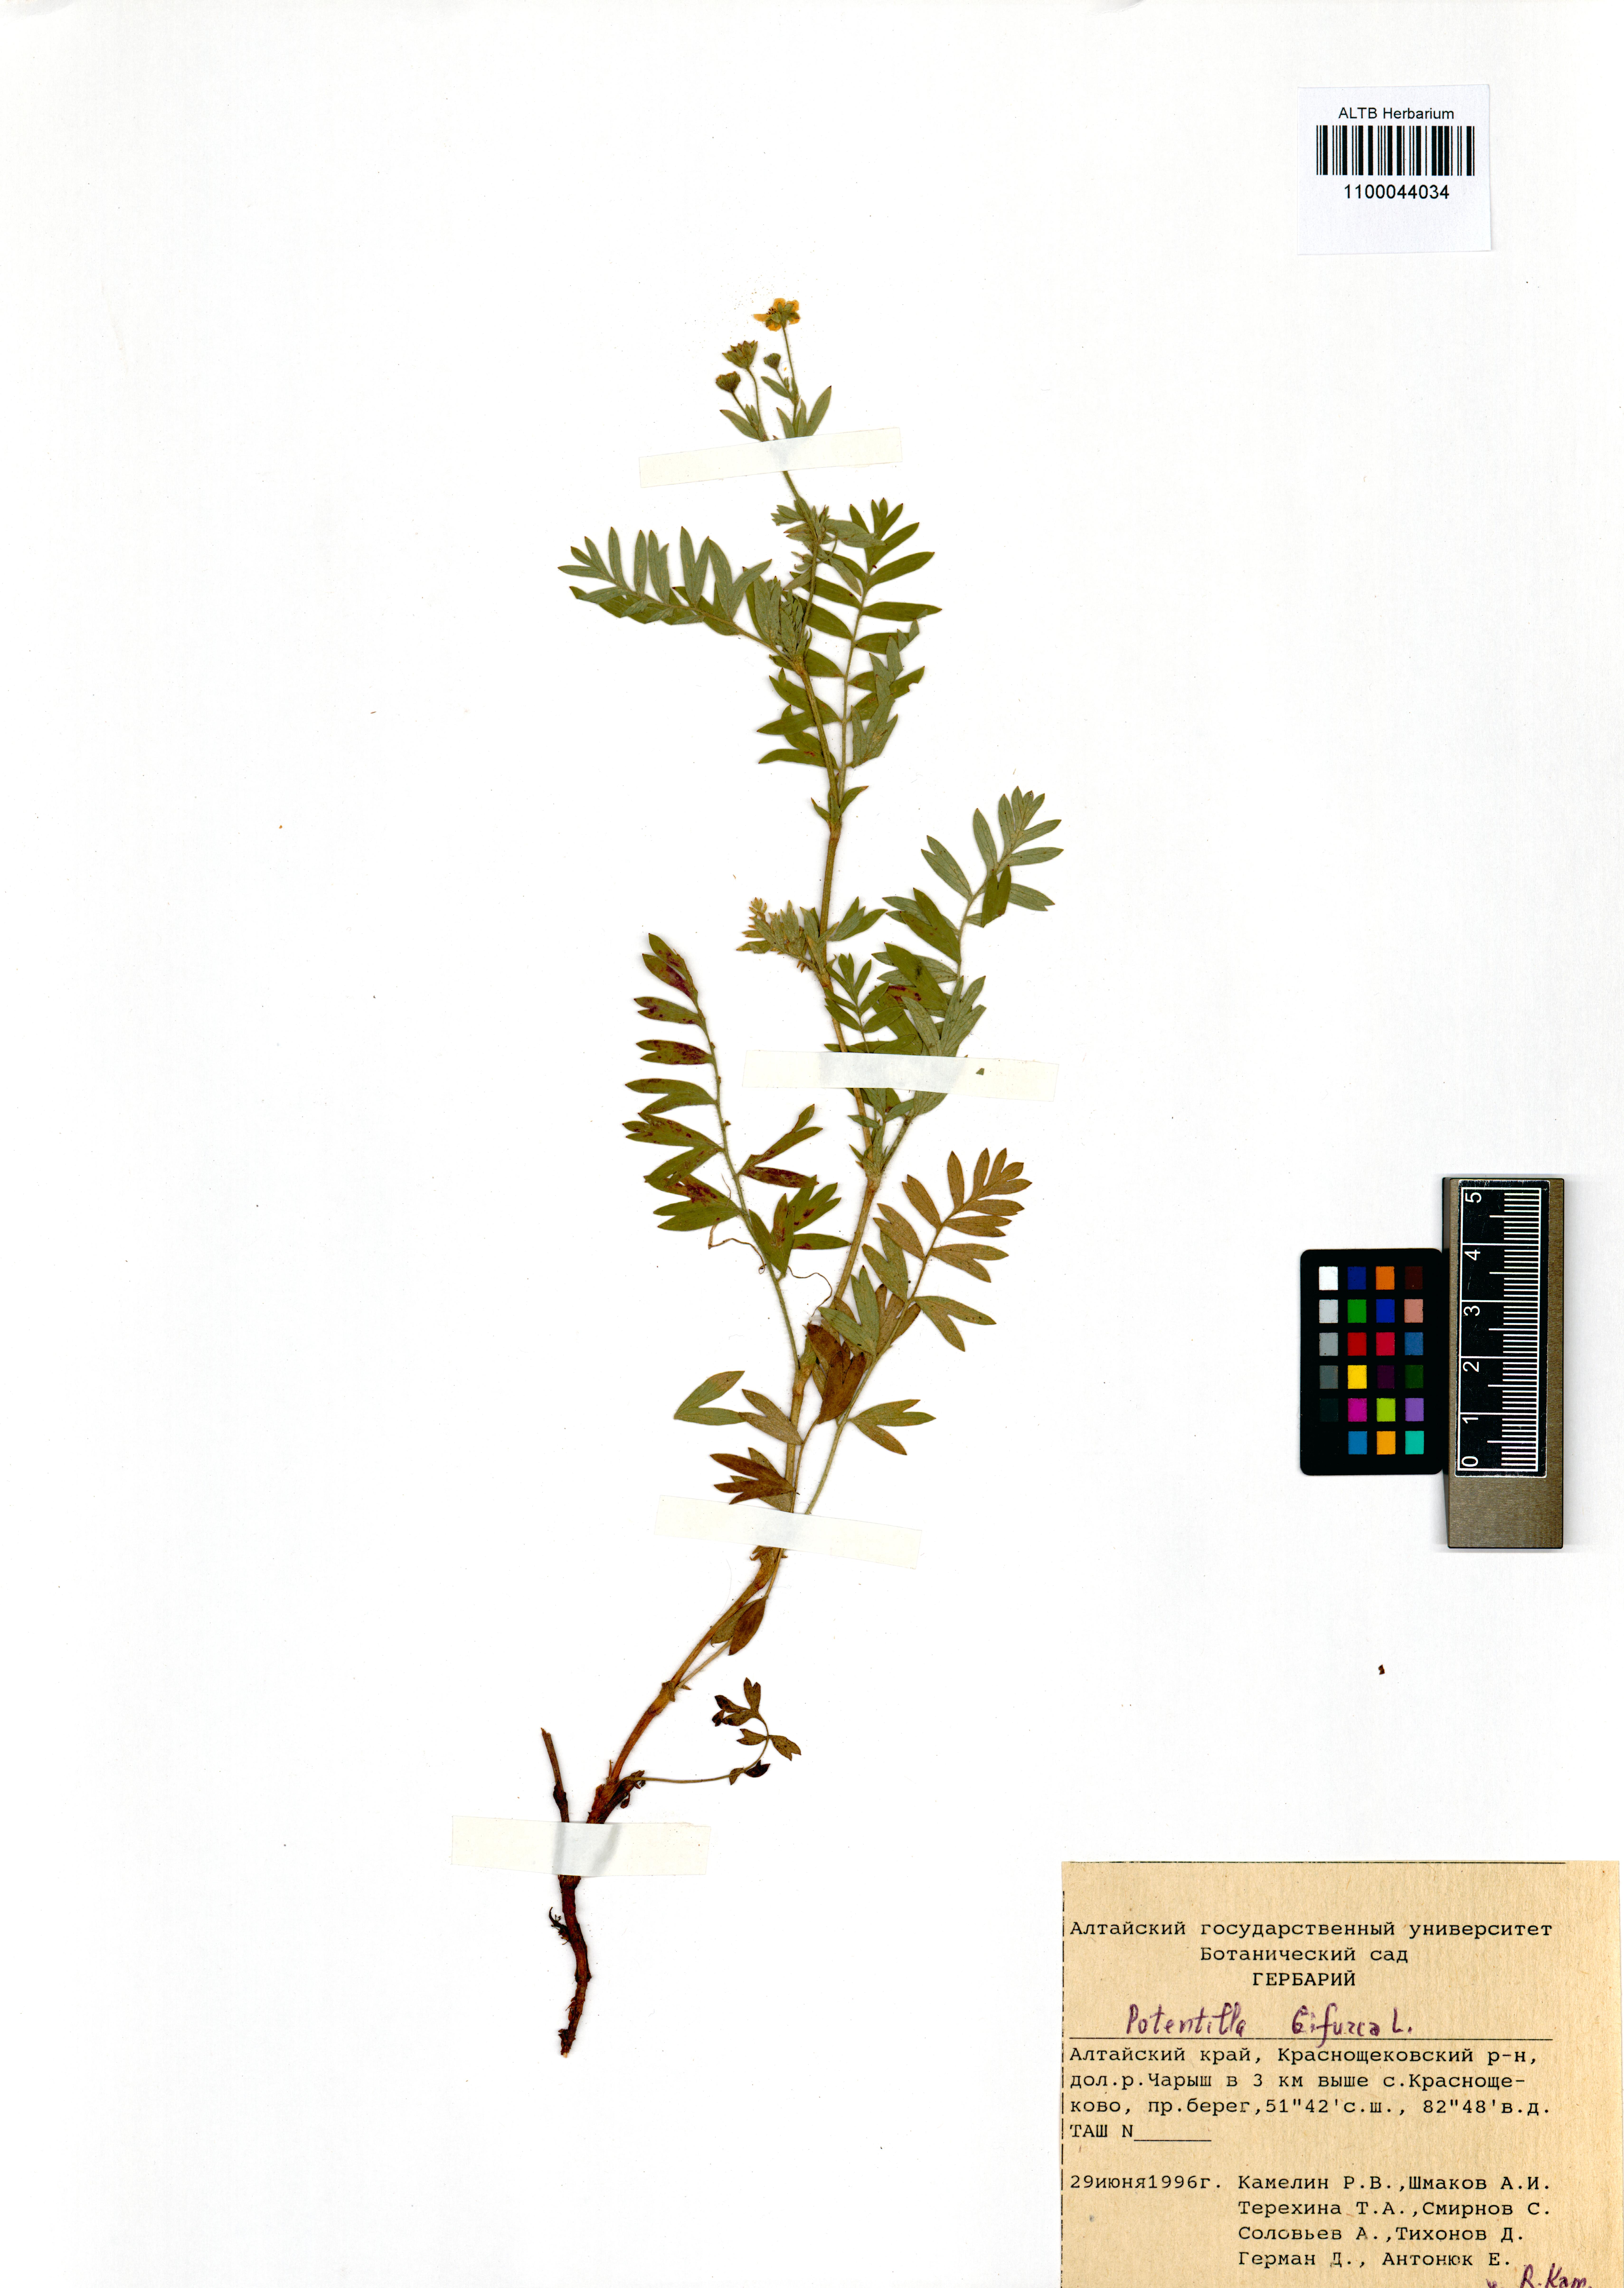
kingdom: Plantae
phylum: Tracheophyta
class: Magnoliopsida
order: Rosales
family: Rosaceae
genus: Sibbaldianthe
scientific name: Sibbaldianthe bifurca
